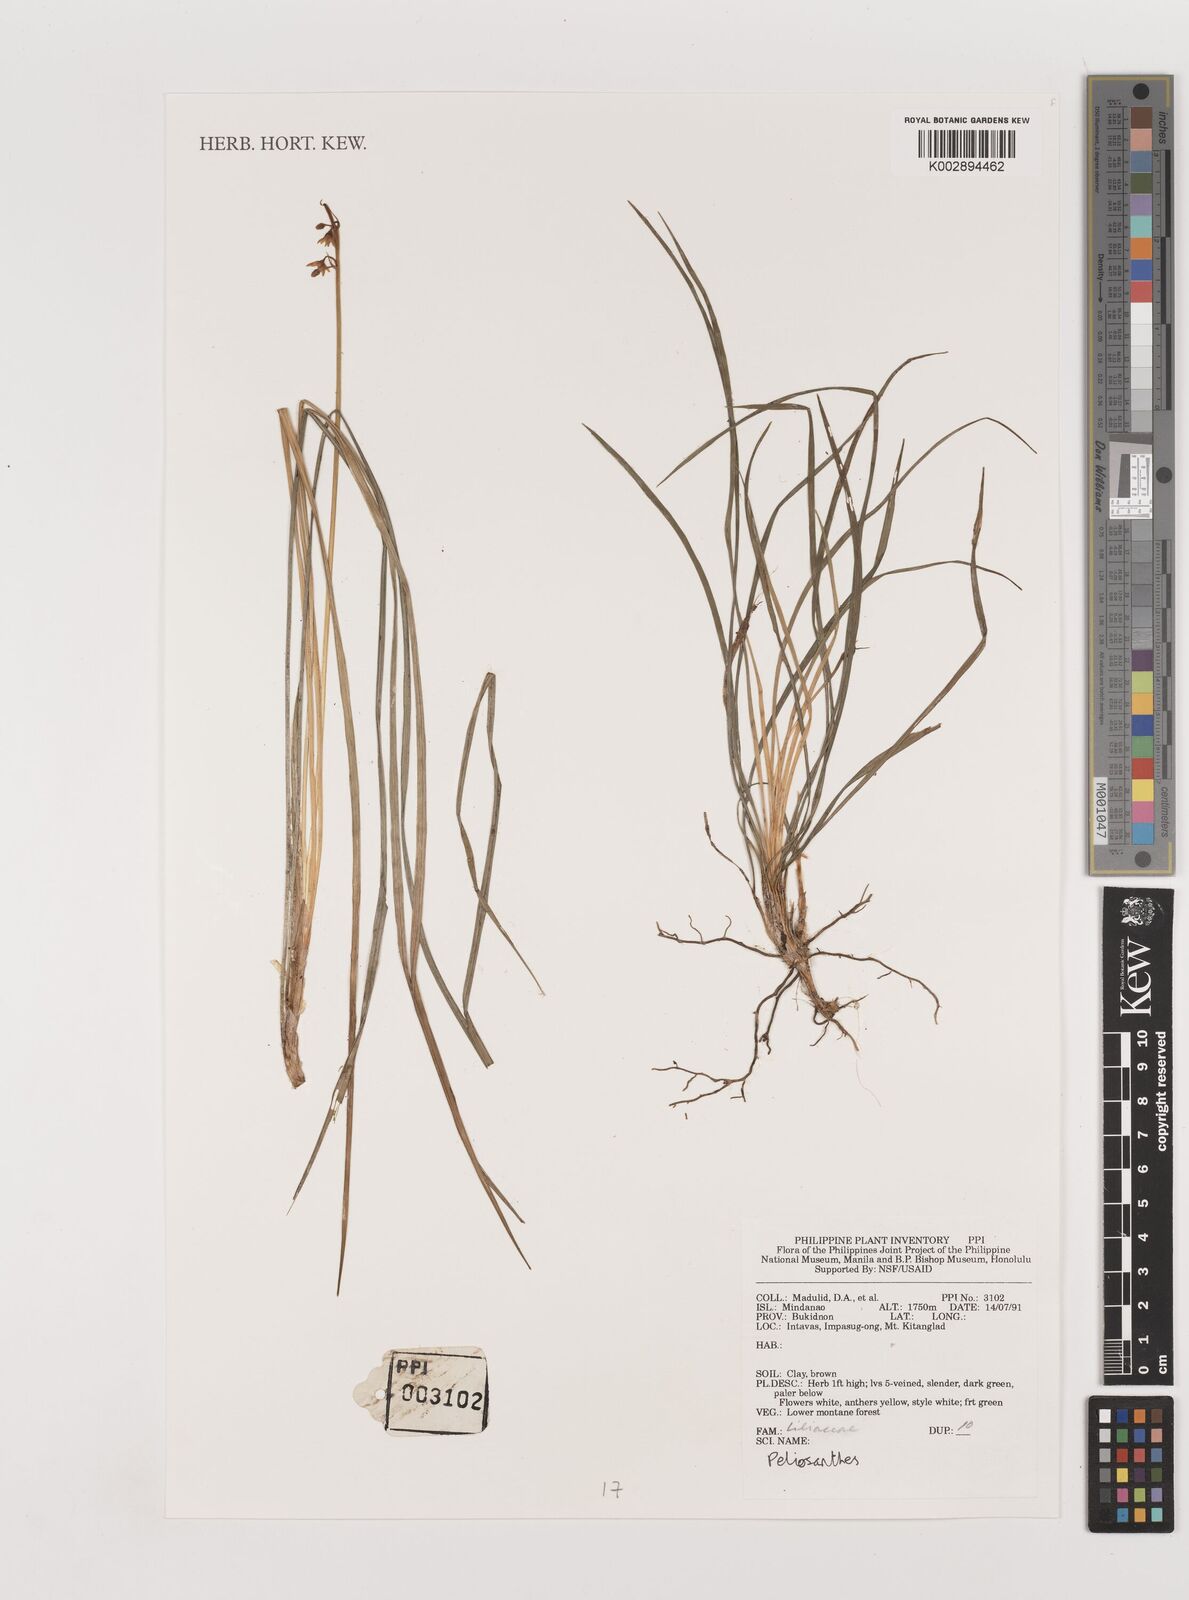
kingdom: Plantae
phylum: Tracheophyta
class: Liliopsida
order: Asparagales
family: Asparagaceae
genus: Peliosanthes
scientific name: Peliosanthes
